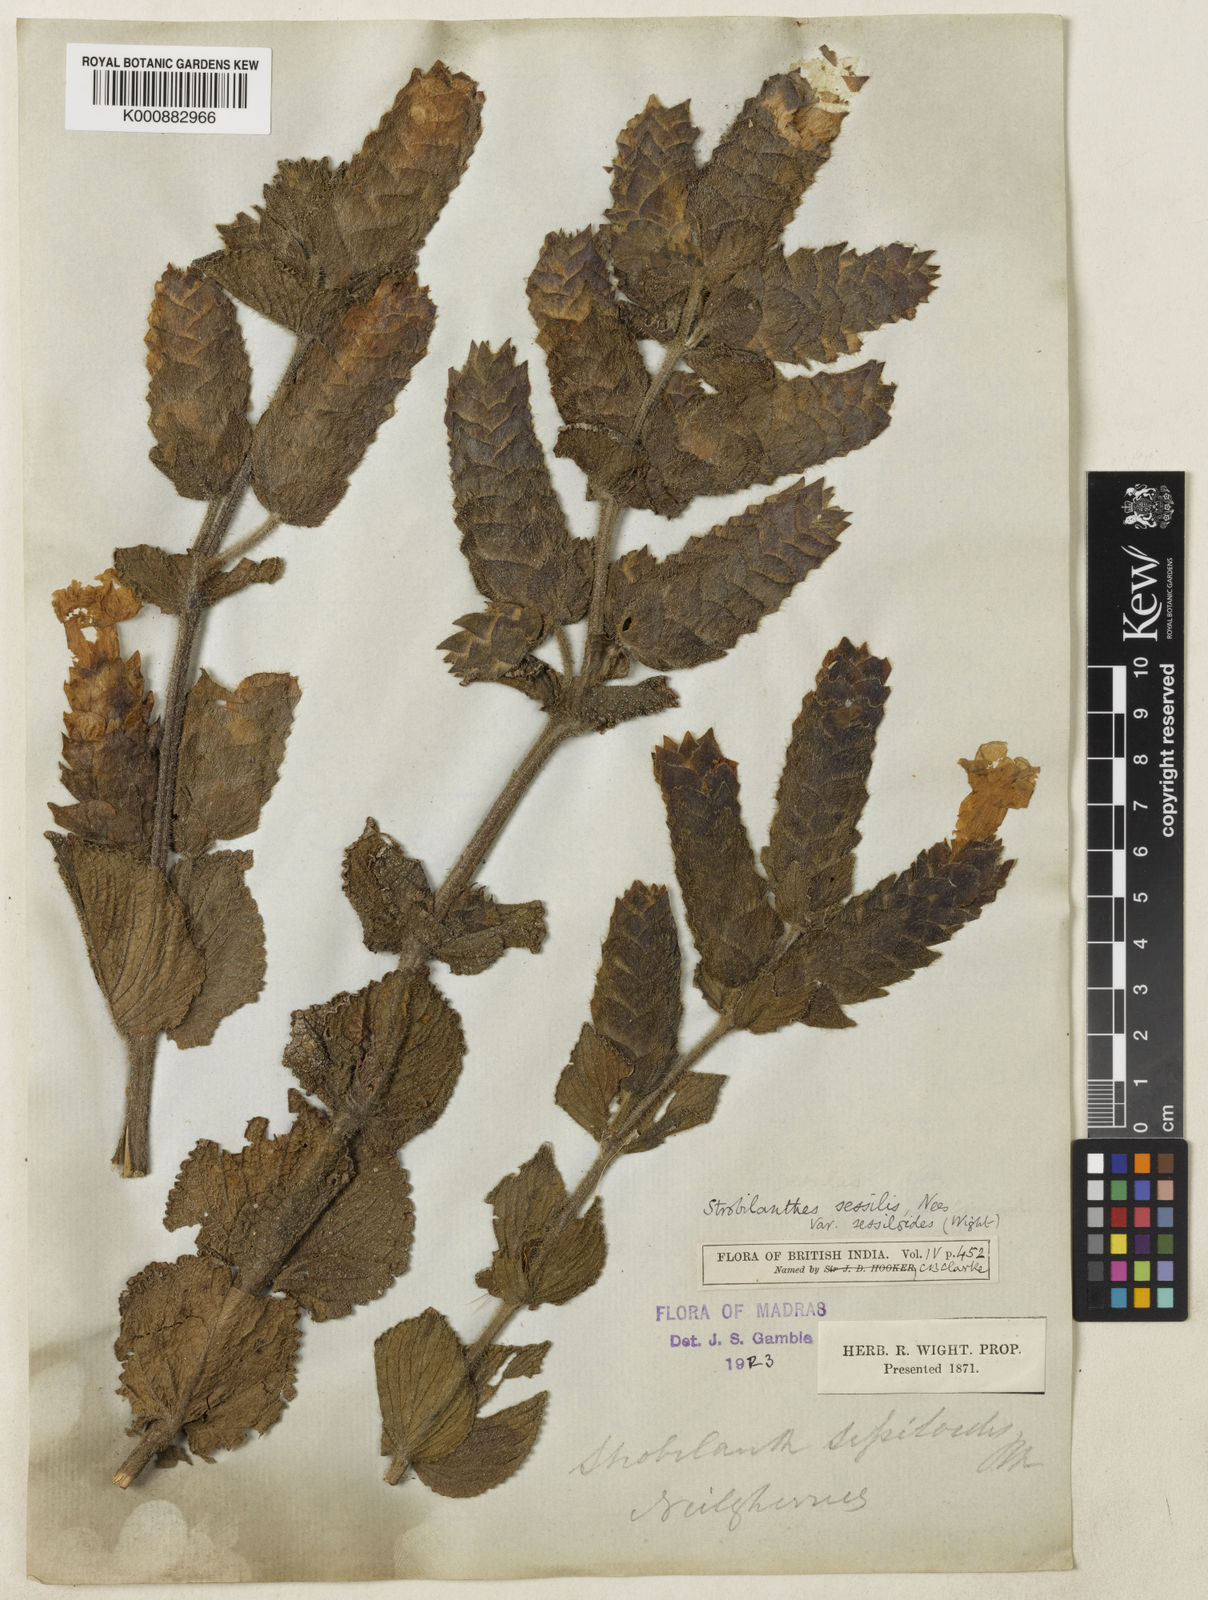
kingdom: Plantae
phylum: Tracheophyta
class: Magnoliopsida
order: Lamiales
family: Acanthaceae
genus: Strobilanthes
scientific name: Strobilanthes sessilis
